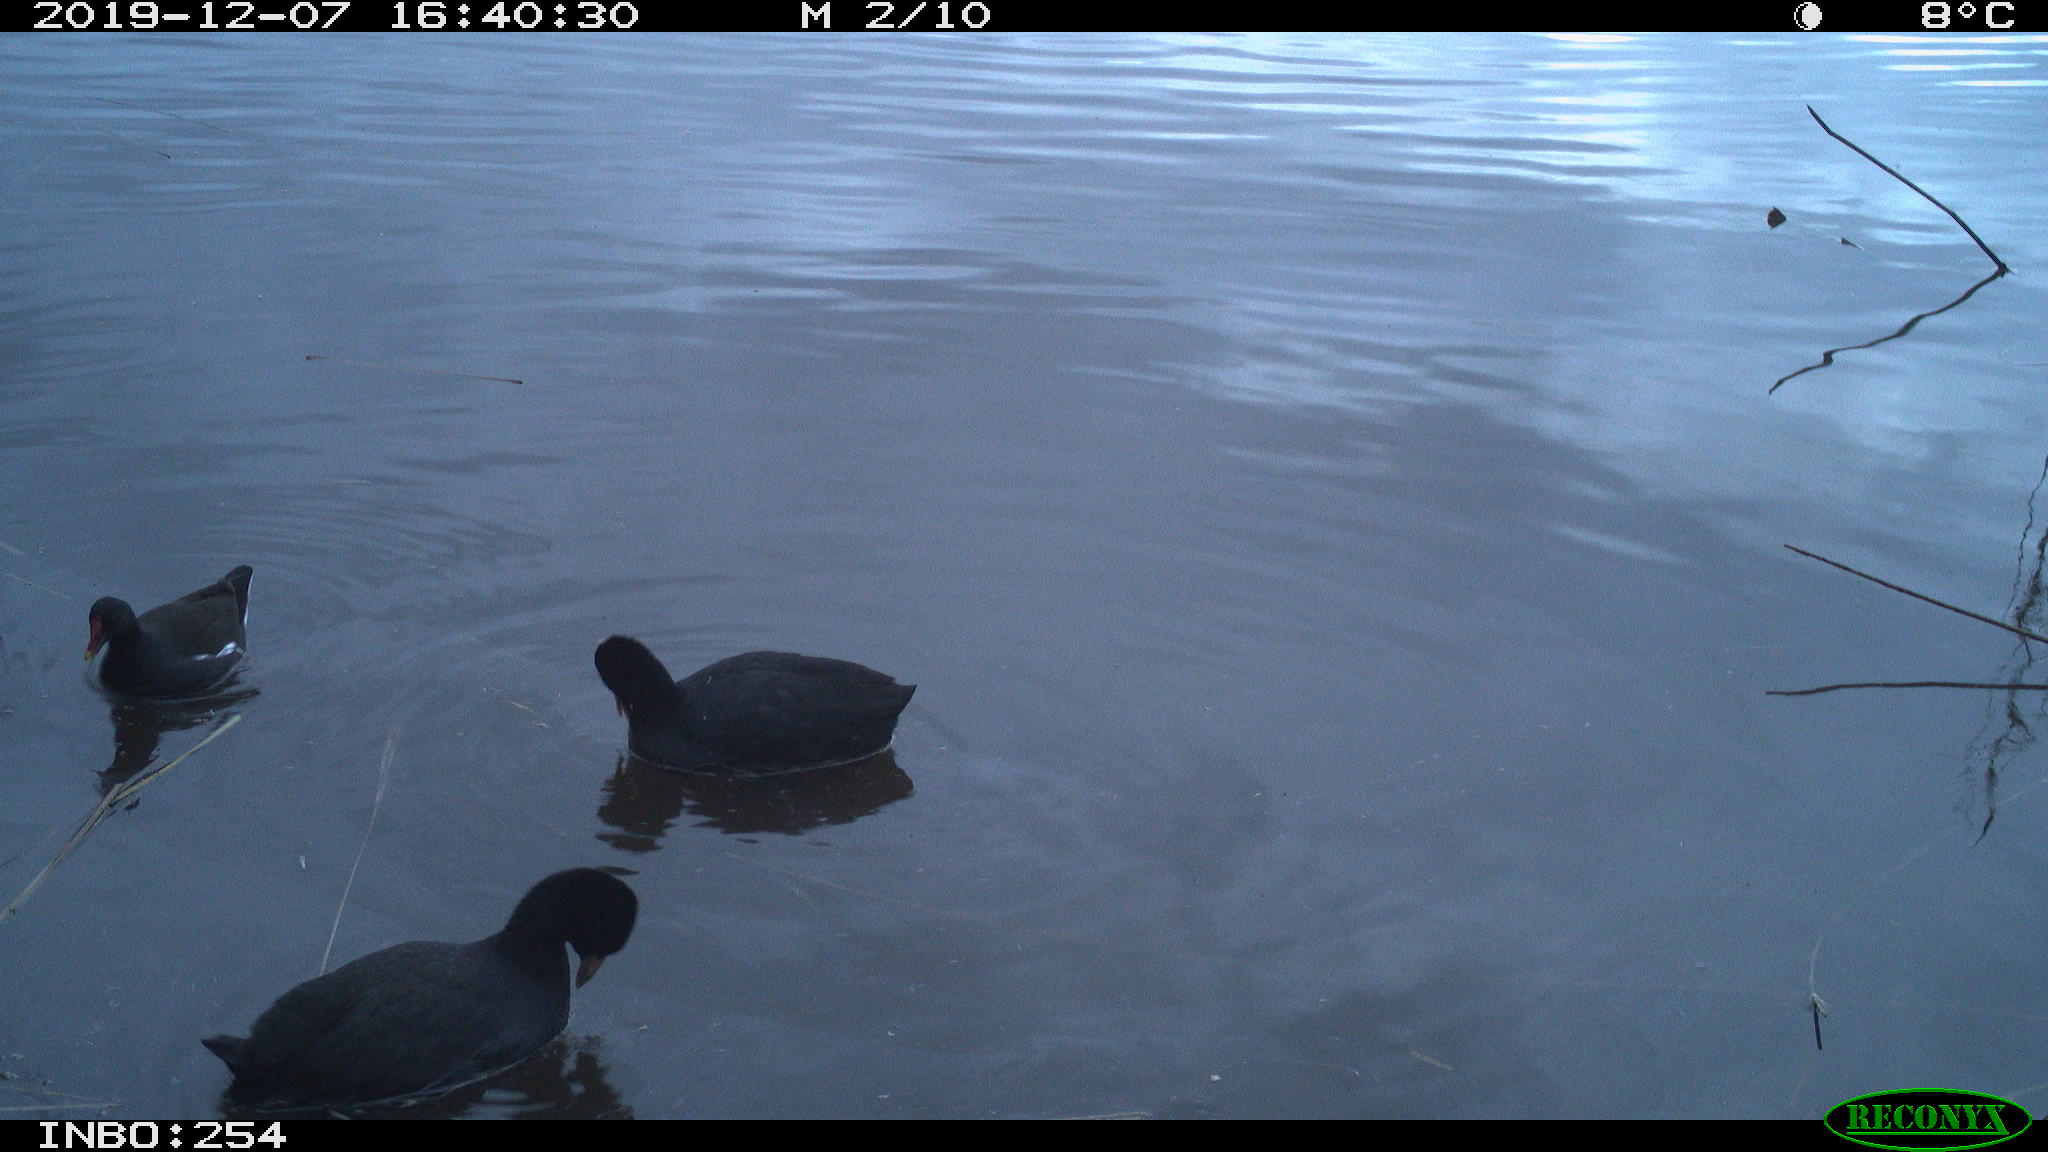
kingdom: Animalia
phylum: Chordata
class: Aves
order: Gruiformes
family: Rallidae
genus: Fulica
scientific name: Fulica atra
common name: Eurasian coot
